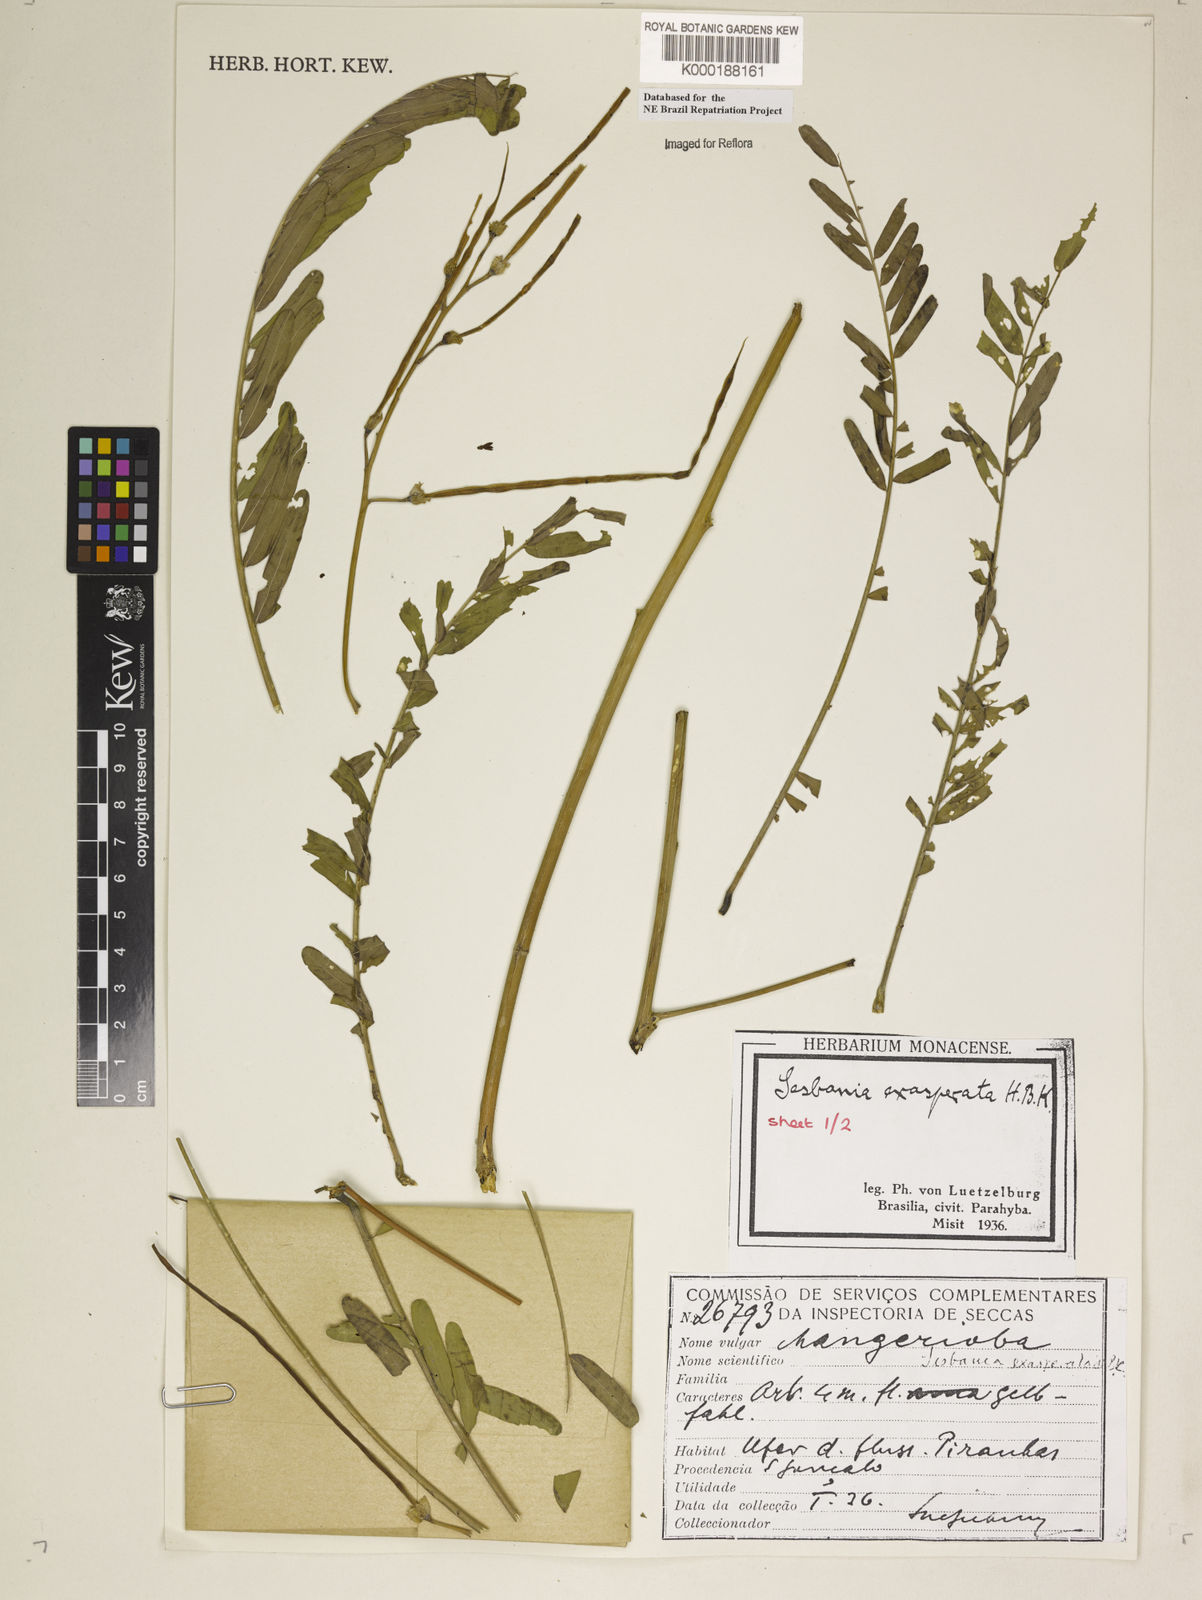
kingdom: Plantae
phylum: Tracheophyta
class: Magnoliopsida
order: Fabales
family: Fabaceae
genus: Sesbania
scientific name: Sesbania exasperata
